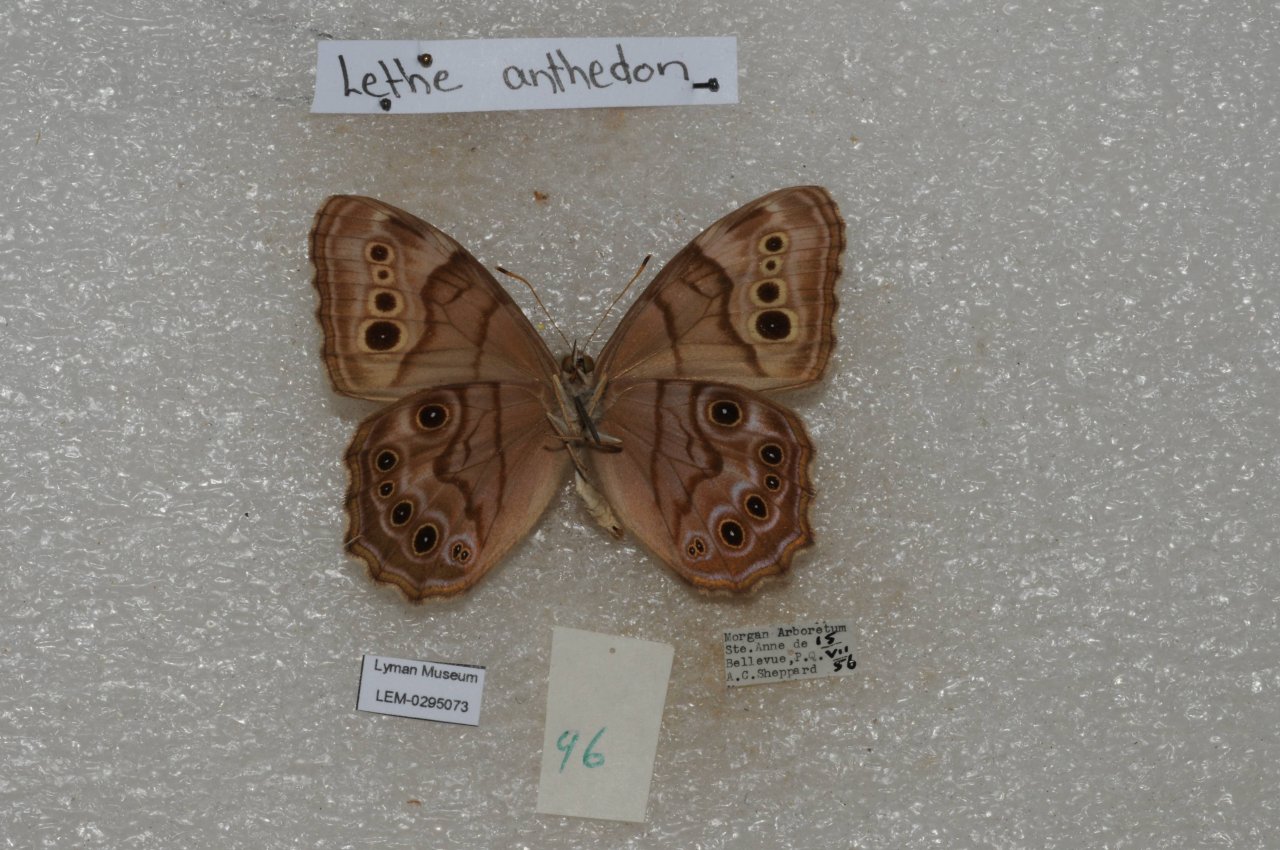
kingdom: Animalia
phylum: Arthropoda
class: Insecta
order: Lepidoptera
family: Nymphalidae
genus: Lethe
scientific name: Lethe anthedon
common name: Northern Pearly-Eye
